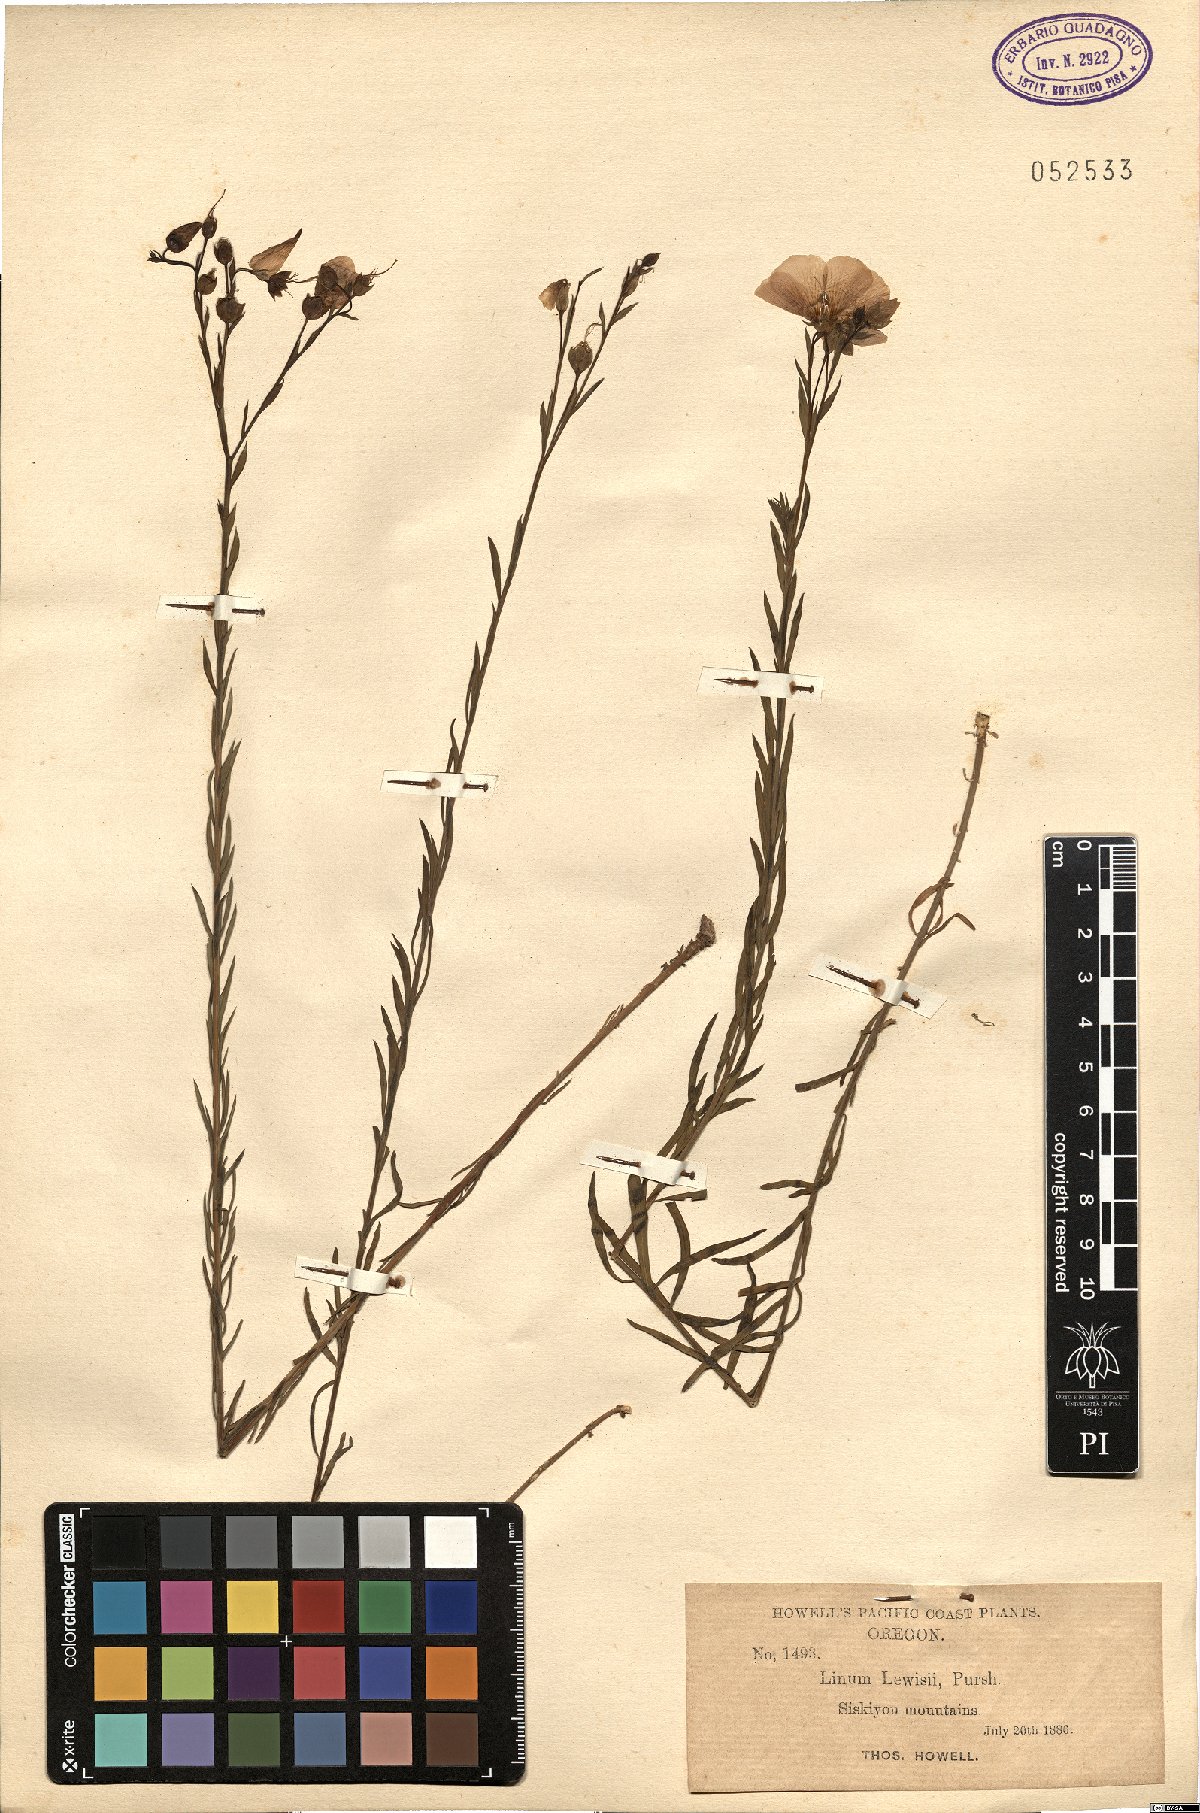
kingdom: Plantae
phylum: Tracheophyta
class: Magnoliopsida
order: Malpighiales
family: Linaceae
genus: Linum
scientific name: Linum lewisii
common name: Prairie flax
